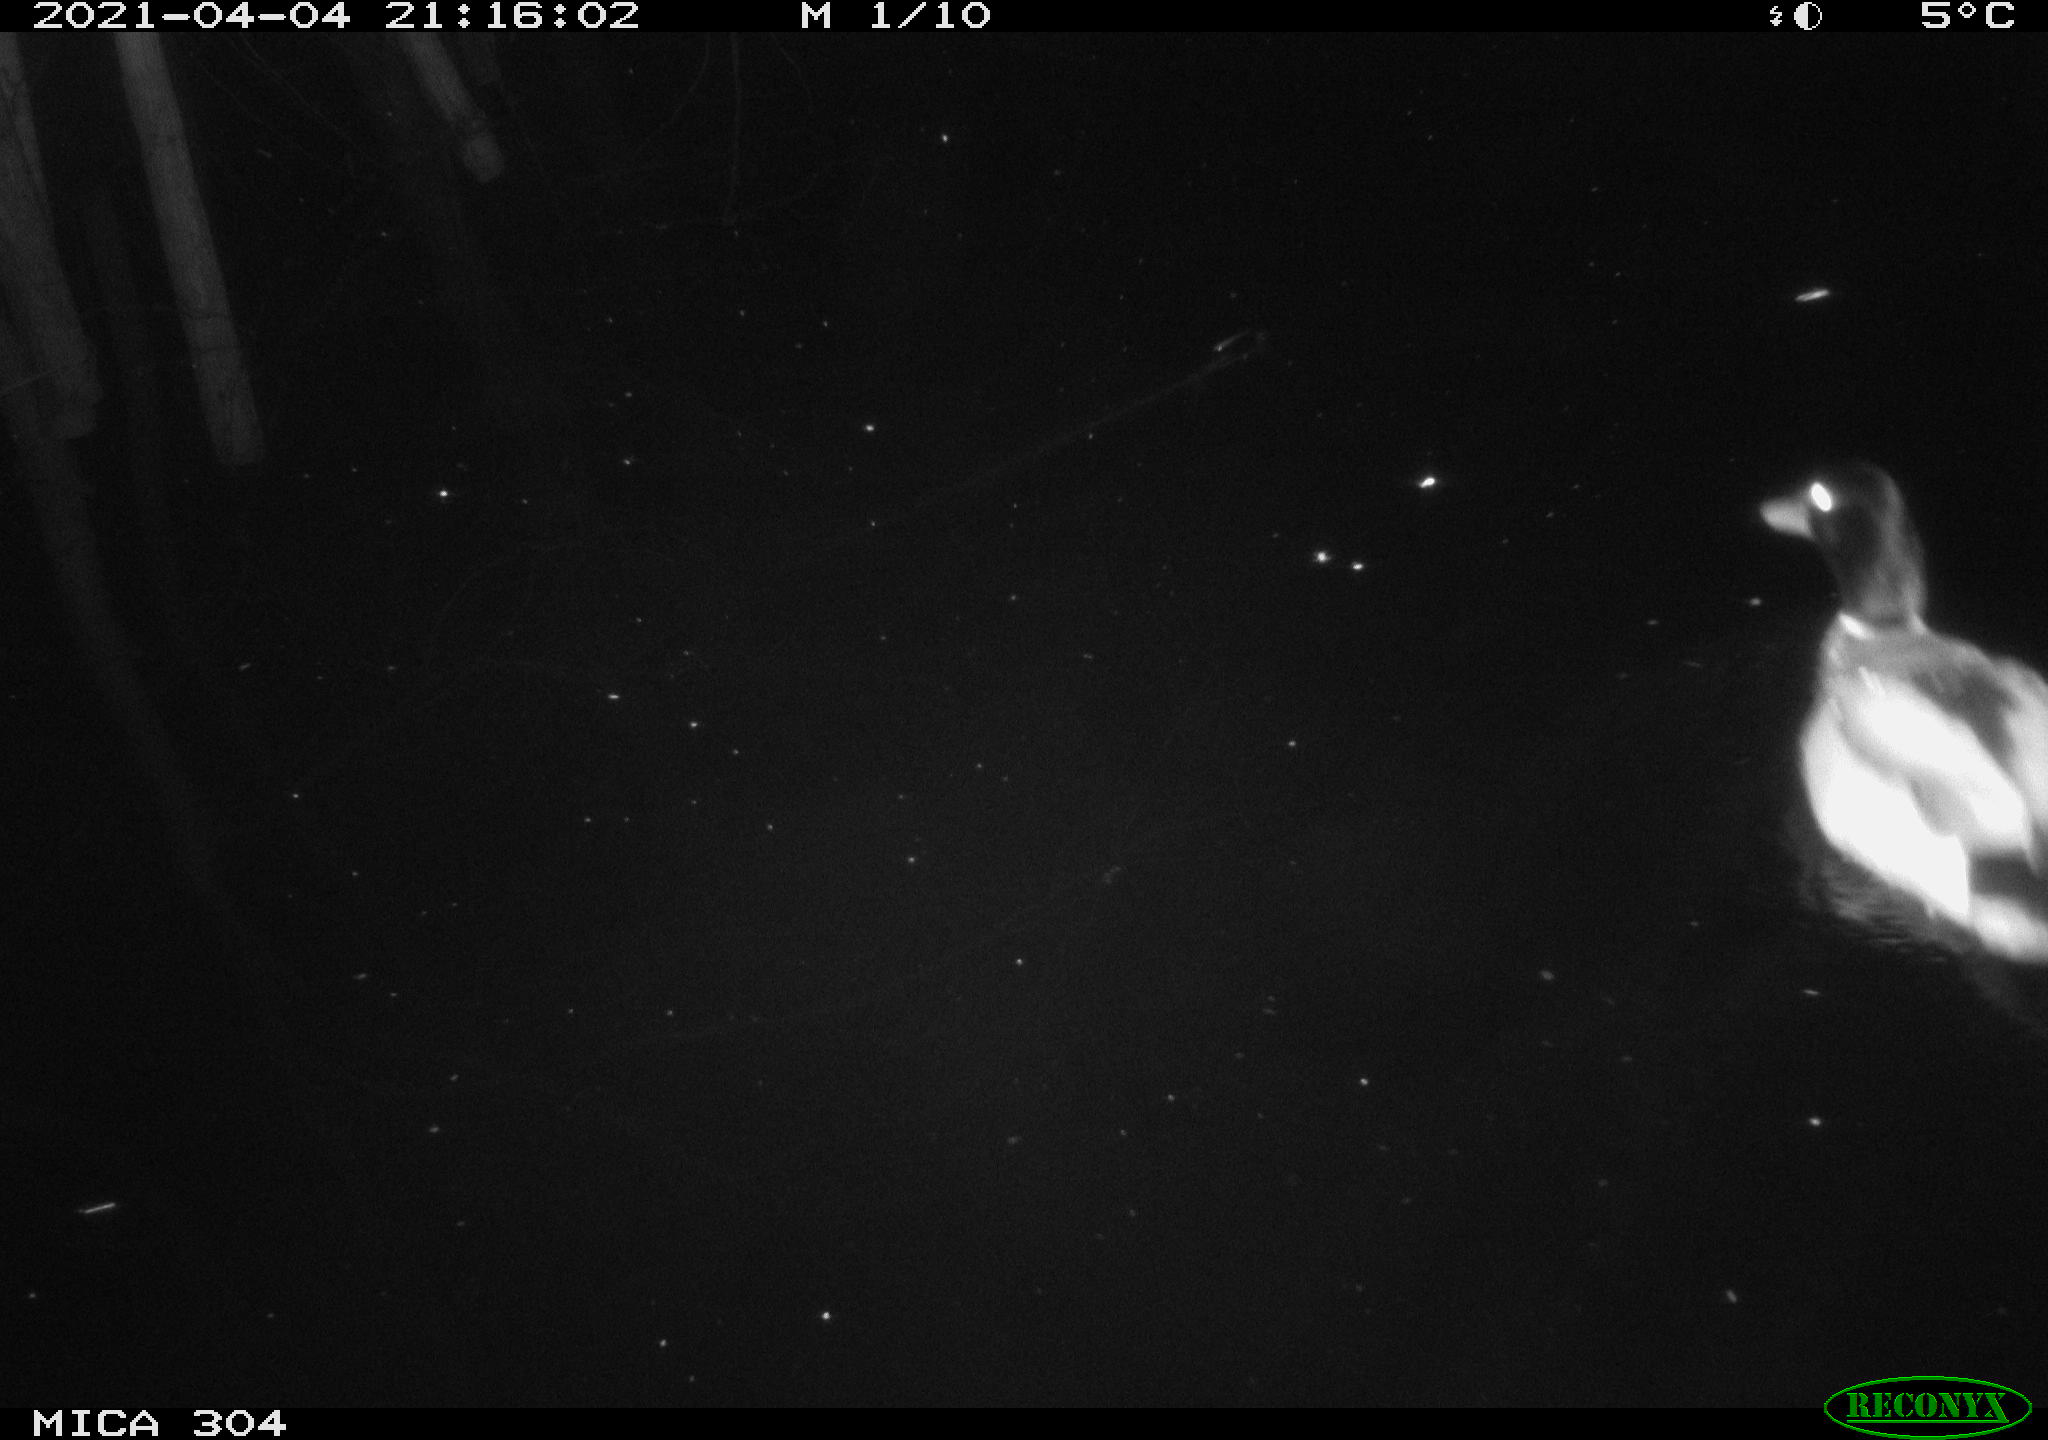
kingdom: Animalia
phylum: Chordata
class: Aves
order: Anseriformes
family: Anatidae
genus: Anas
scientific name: Anas
